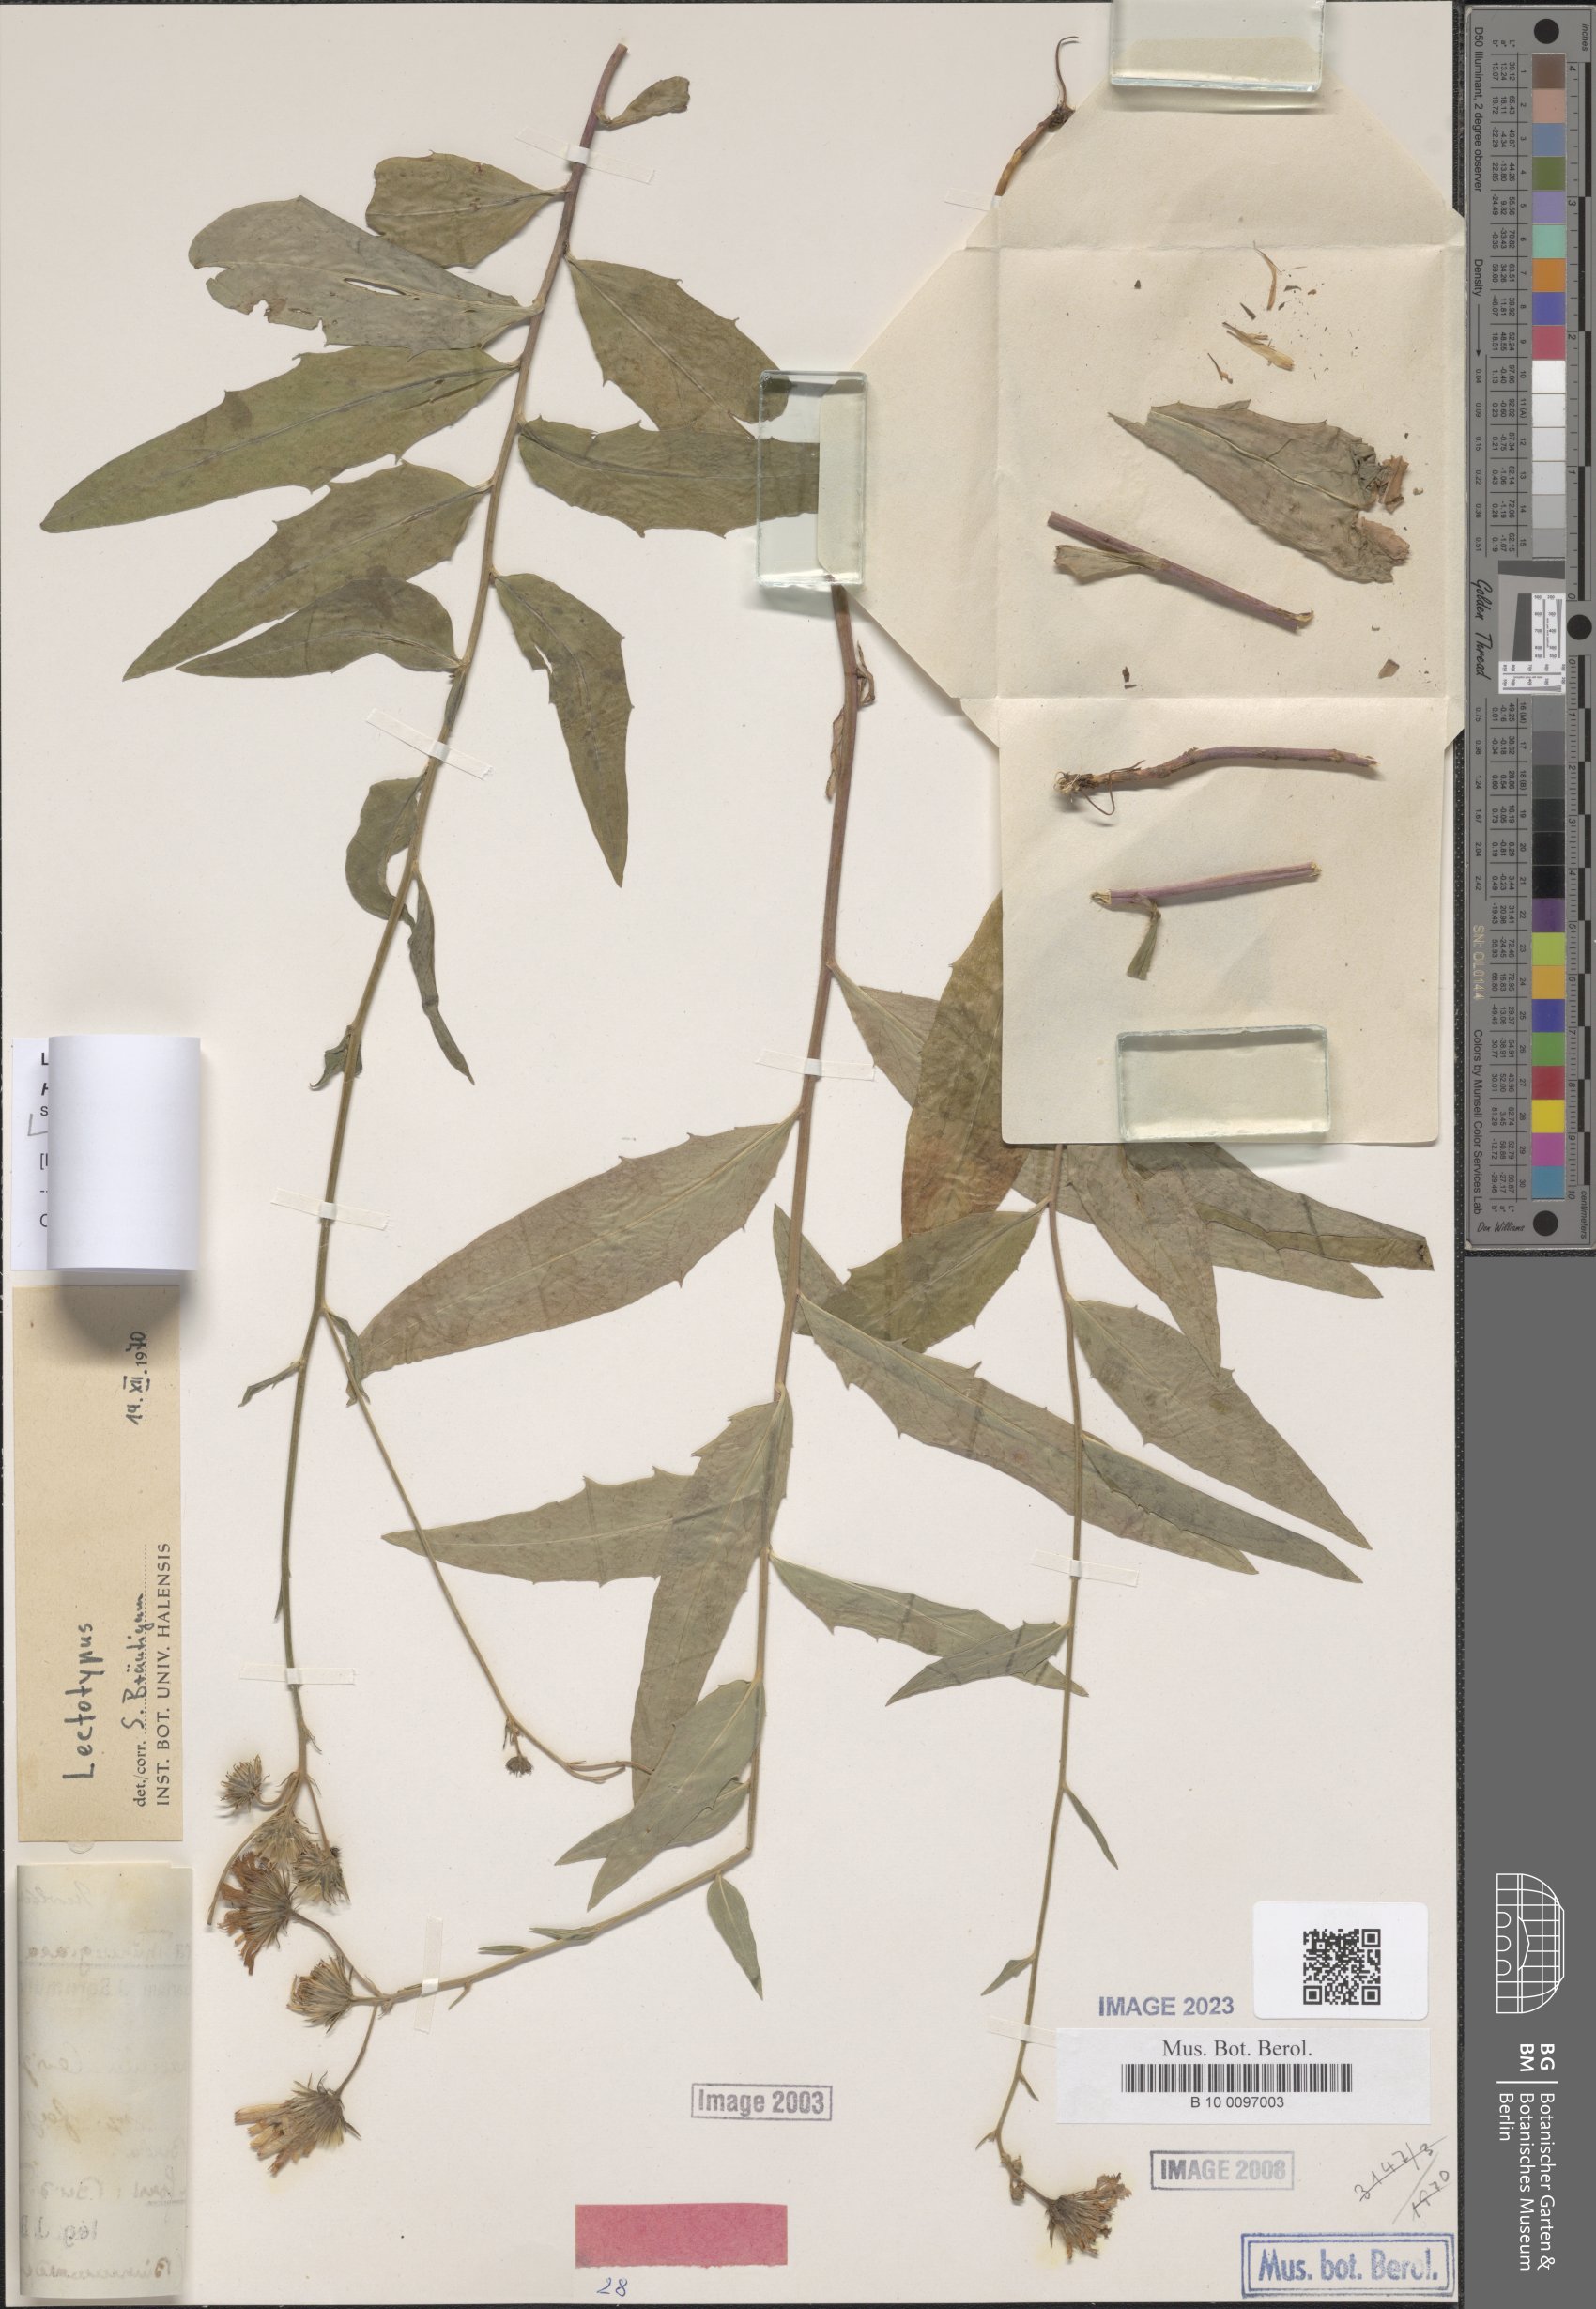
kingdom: Plantae
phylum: Tracheophyta
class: Magnoliopsida
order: Asterales
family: Asteraceae
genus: Hieracium
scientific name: Hieracium laevigatum
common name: Smooth hawkweed
